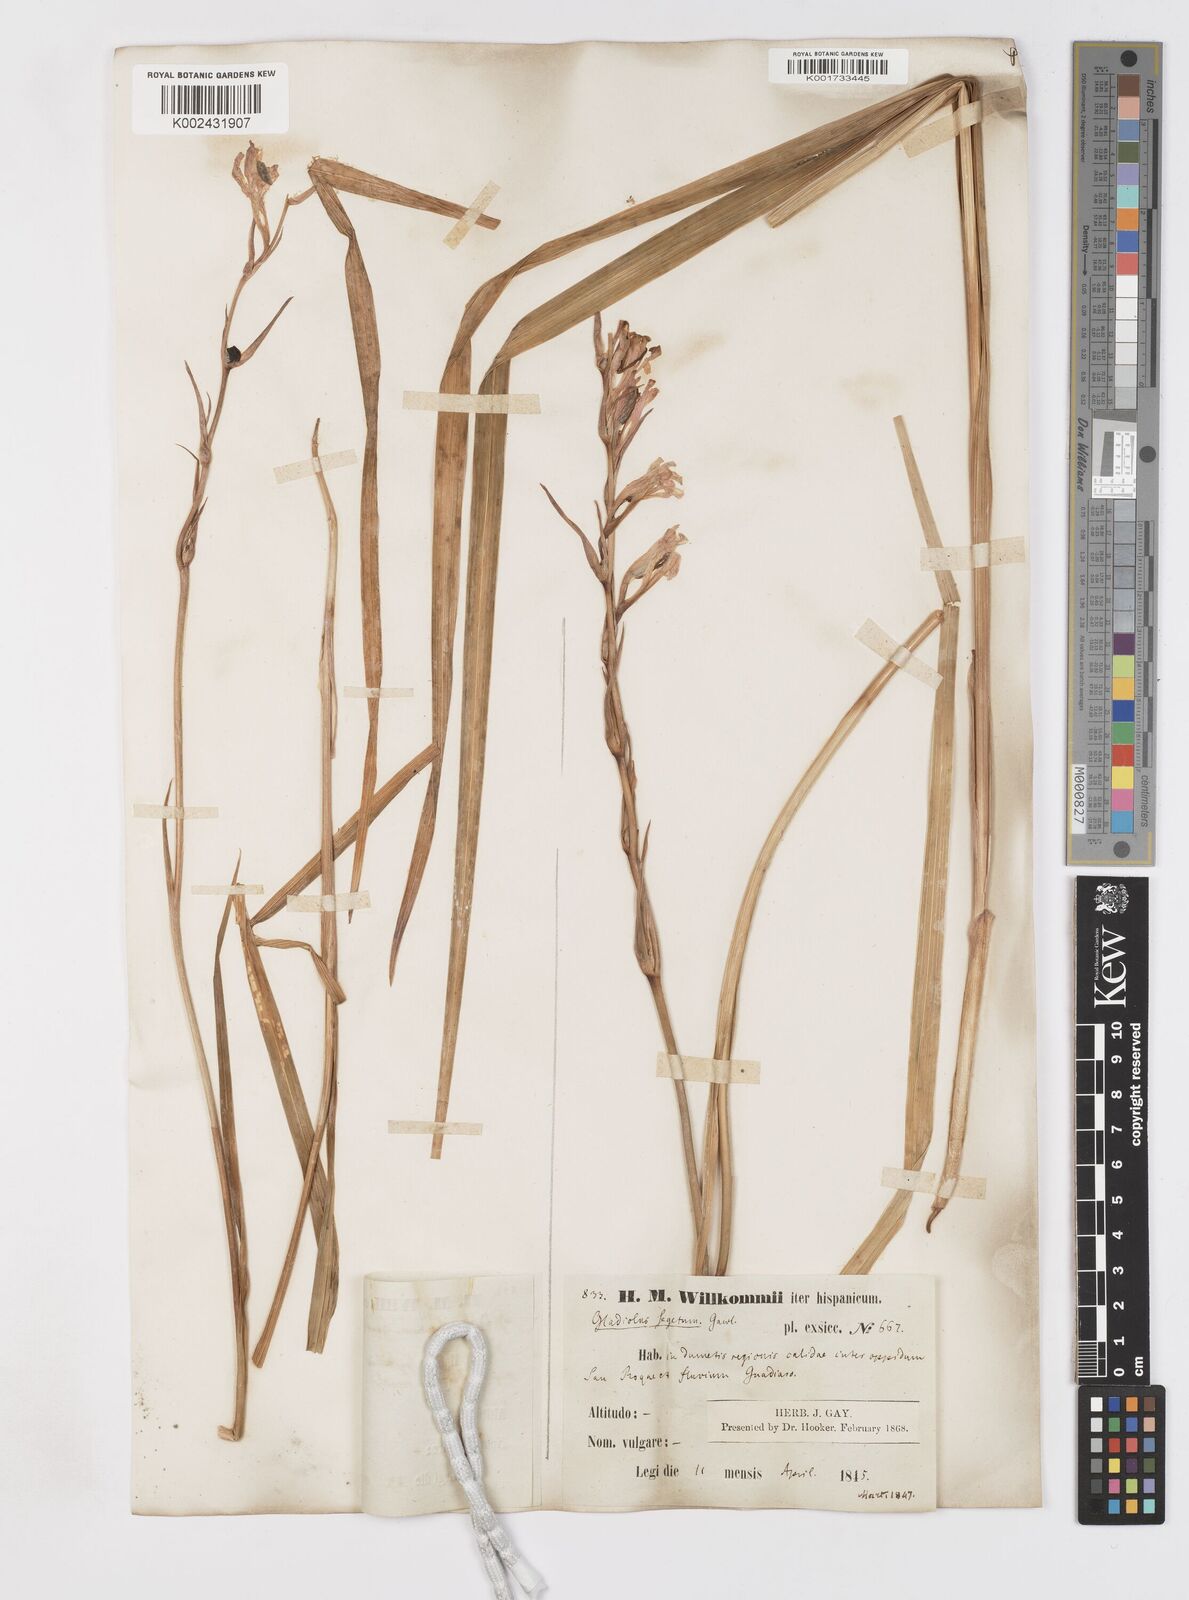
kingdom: Plantae
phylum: Tracheophyta
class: Liliopsida
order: Asparagales
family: Iridaceae
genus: Gladiolus
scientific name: Gladiolus italicus
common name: Field gladiolus
